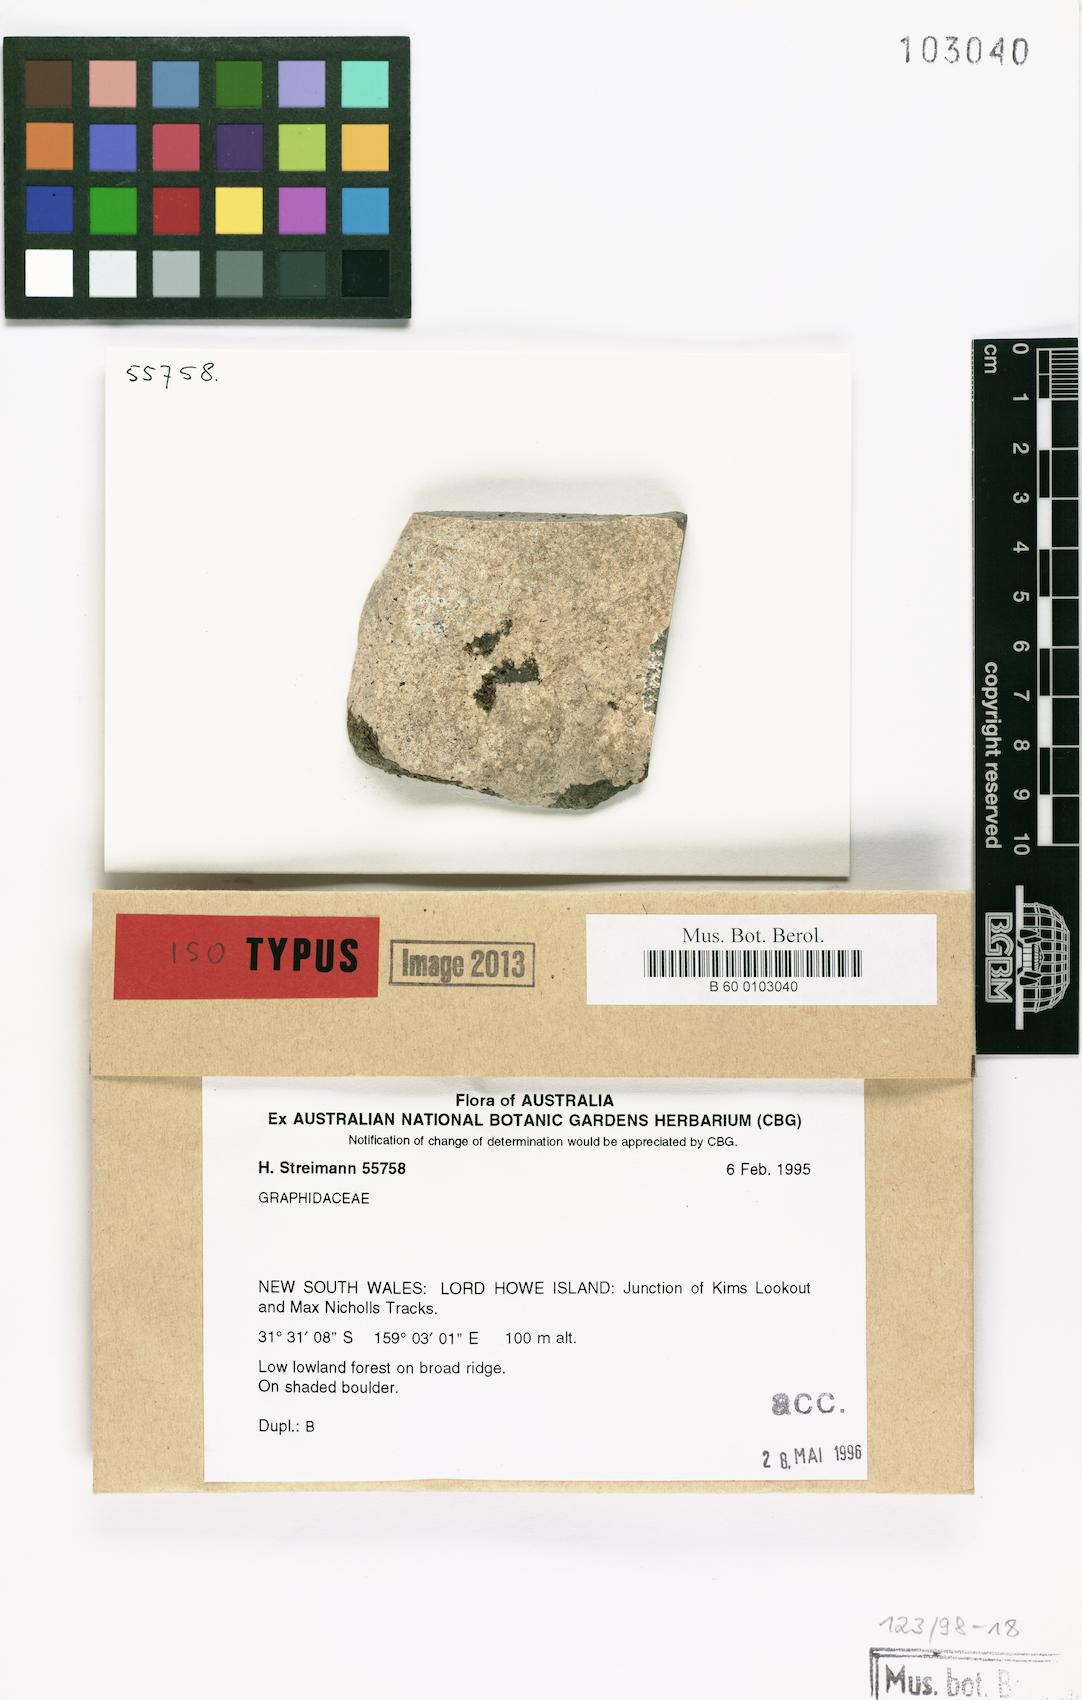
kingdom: Fungi
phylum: Ascomycota
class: Lecanoromycetes
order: Ostropales
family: Graphidaceae
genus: Fissurina
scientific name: Fissurina howeana
